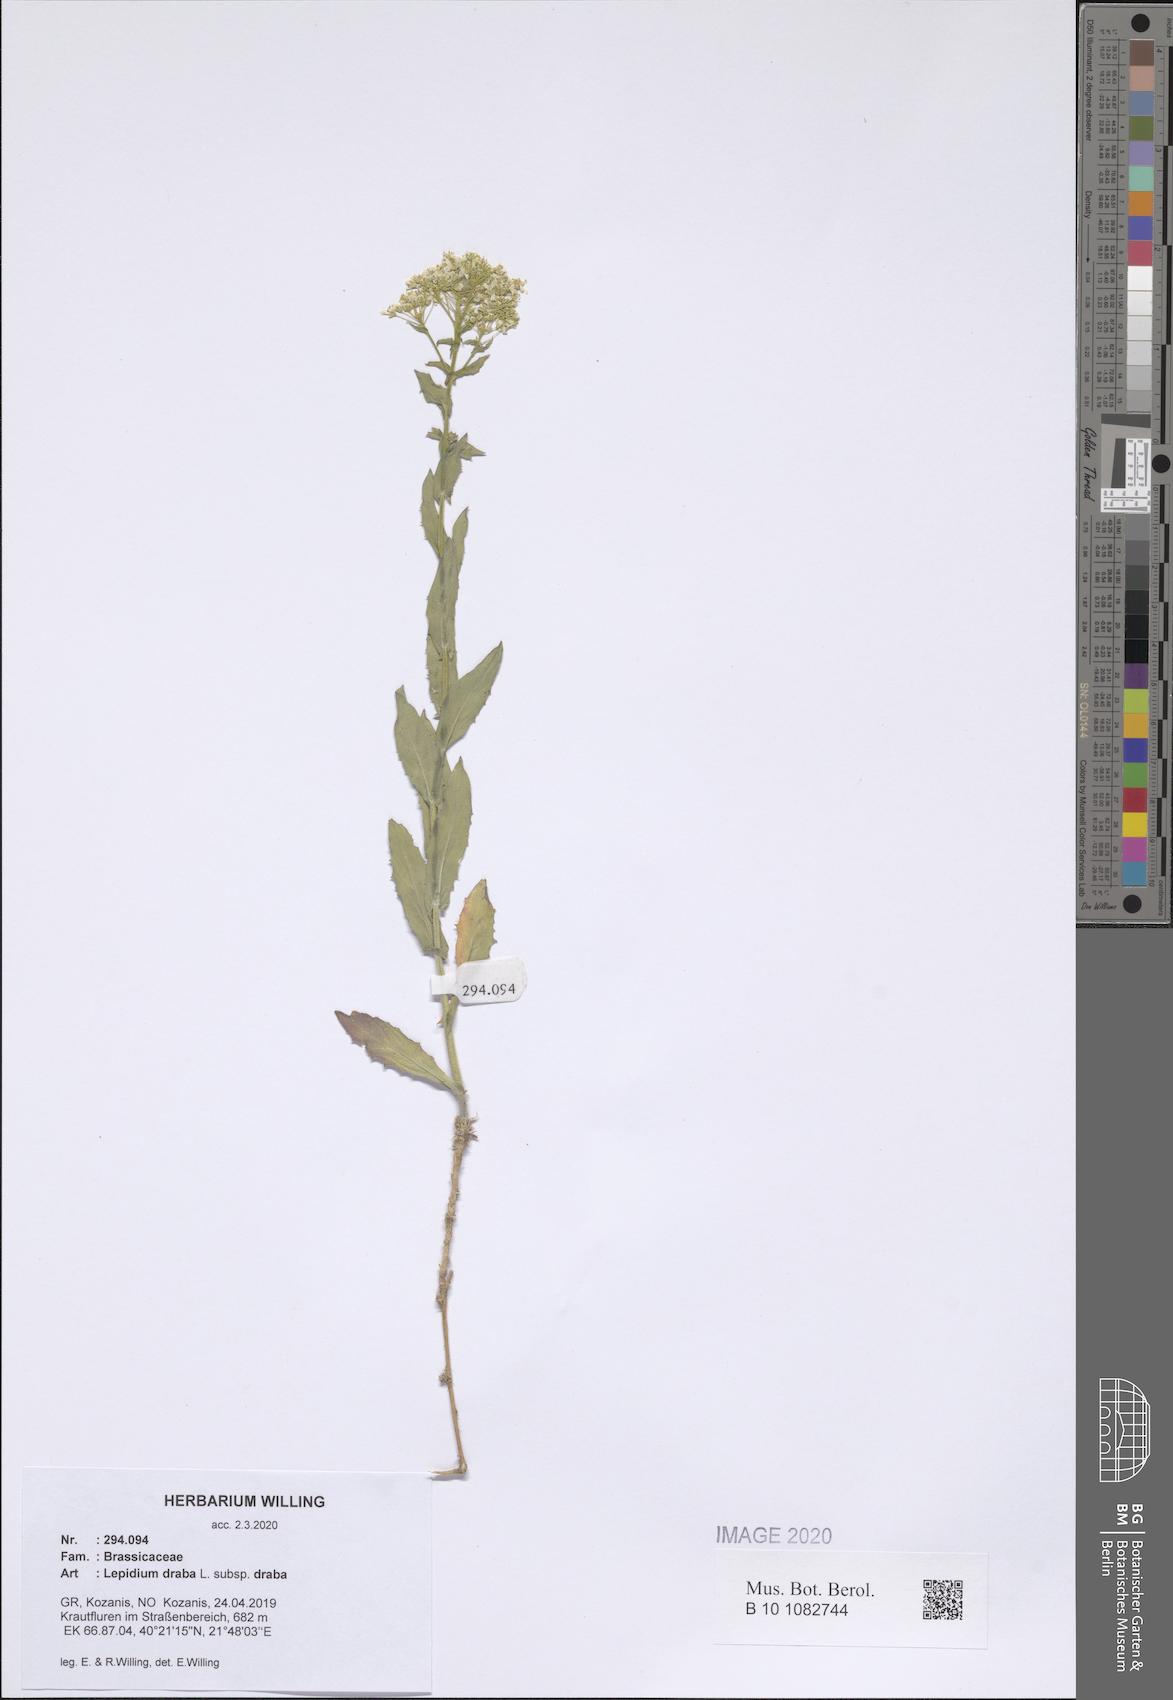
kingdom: Plantae
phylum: Tracheophyta
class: Magnoliopsida
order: Brassicales
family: Brassicaceae
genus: Lepidium
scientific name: Lepidium draba
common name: Hoary cress
